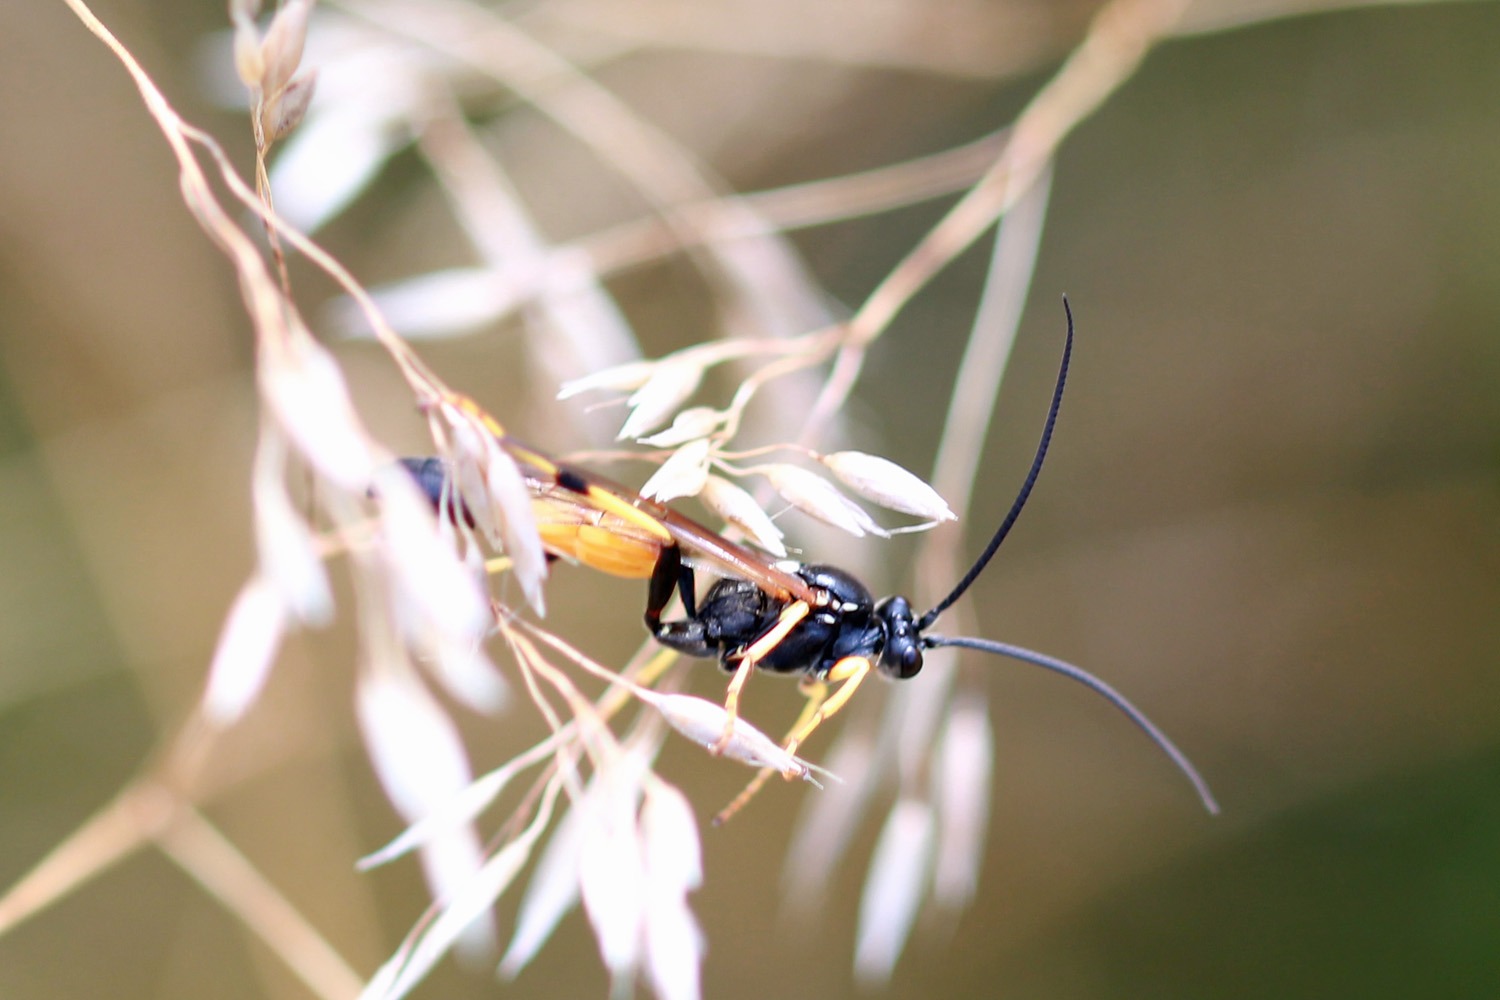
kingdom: Animalia
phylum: Arthropoda
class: Insecta
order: Hymenoptera
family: Ichneumonidae
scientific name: Ichneumonidae
